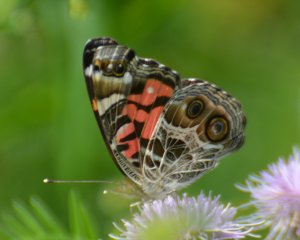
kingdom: Animalia
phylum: Arthropoda
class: Insecta
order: Lepidoptera
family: Nymphalidae
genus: Vanessa
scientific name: Vanessa virginiensis
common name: American Lady
